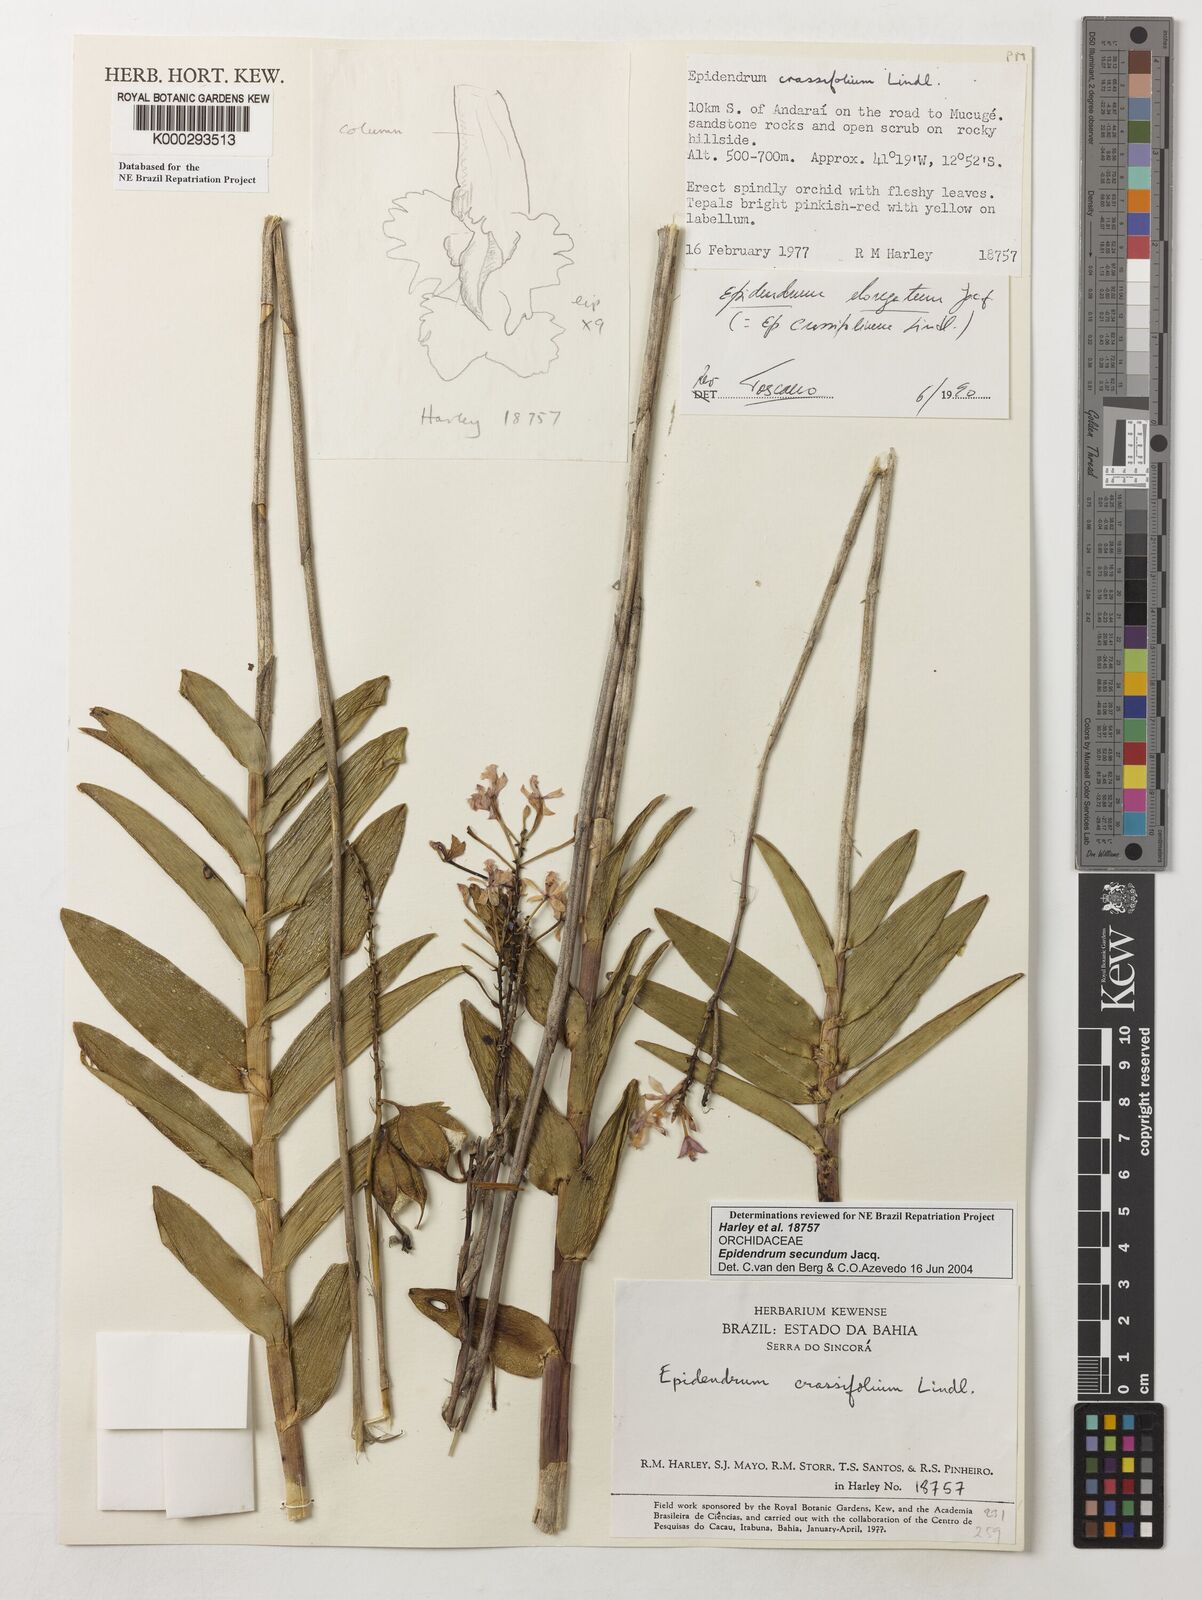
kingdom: Plantae
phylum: Tracheophyta
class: Liliopsida
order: Asparagales
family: Orchidaceae
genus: Epidendrum
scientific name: Epidendrum secundum
